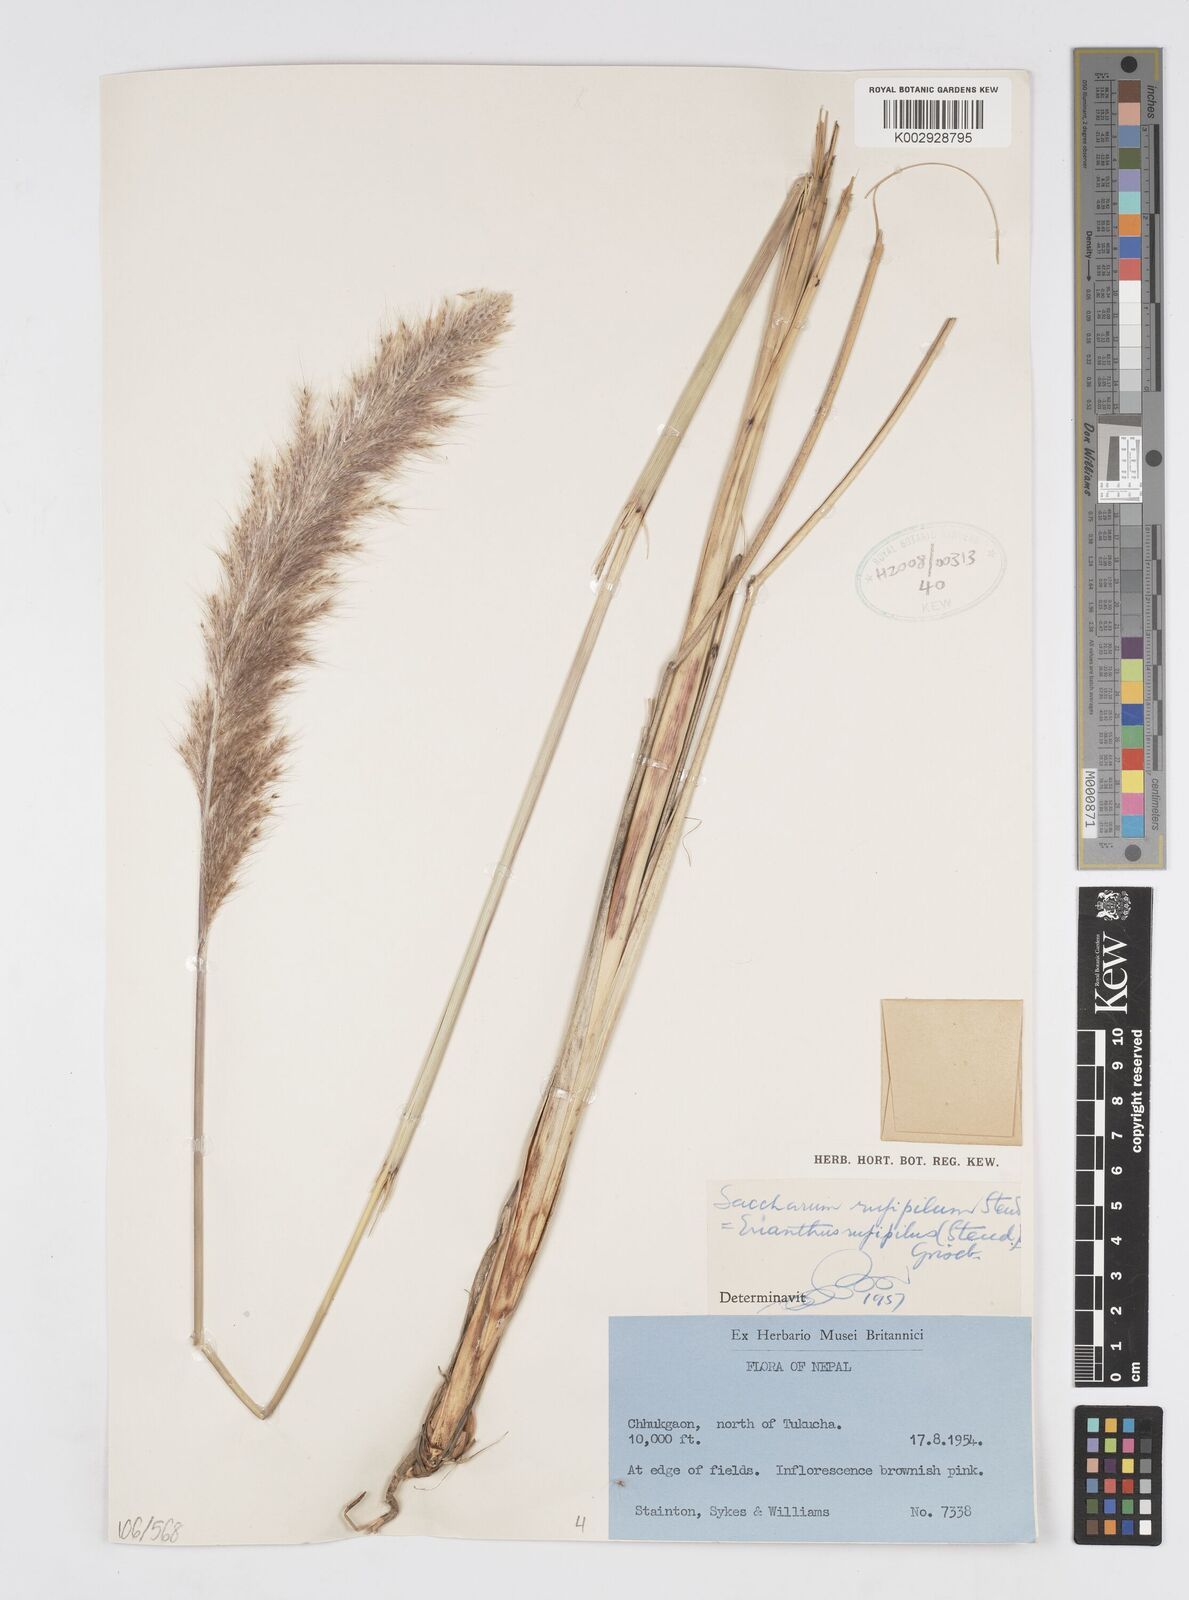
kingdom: Plantae
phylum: Tracheophyta
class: Liliopsida
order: Poales
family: Poaceae
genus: Tripidium
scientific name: Tripidium rufipilum
